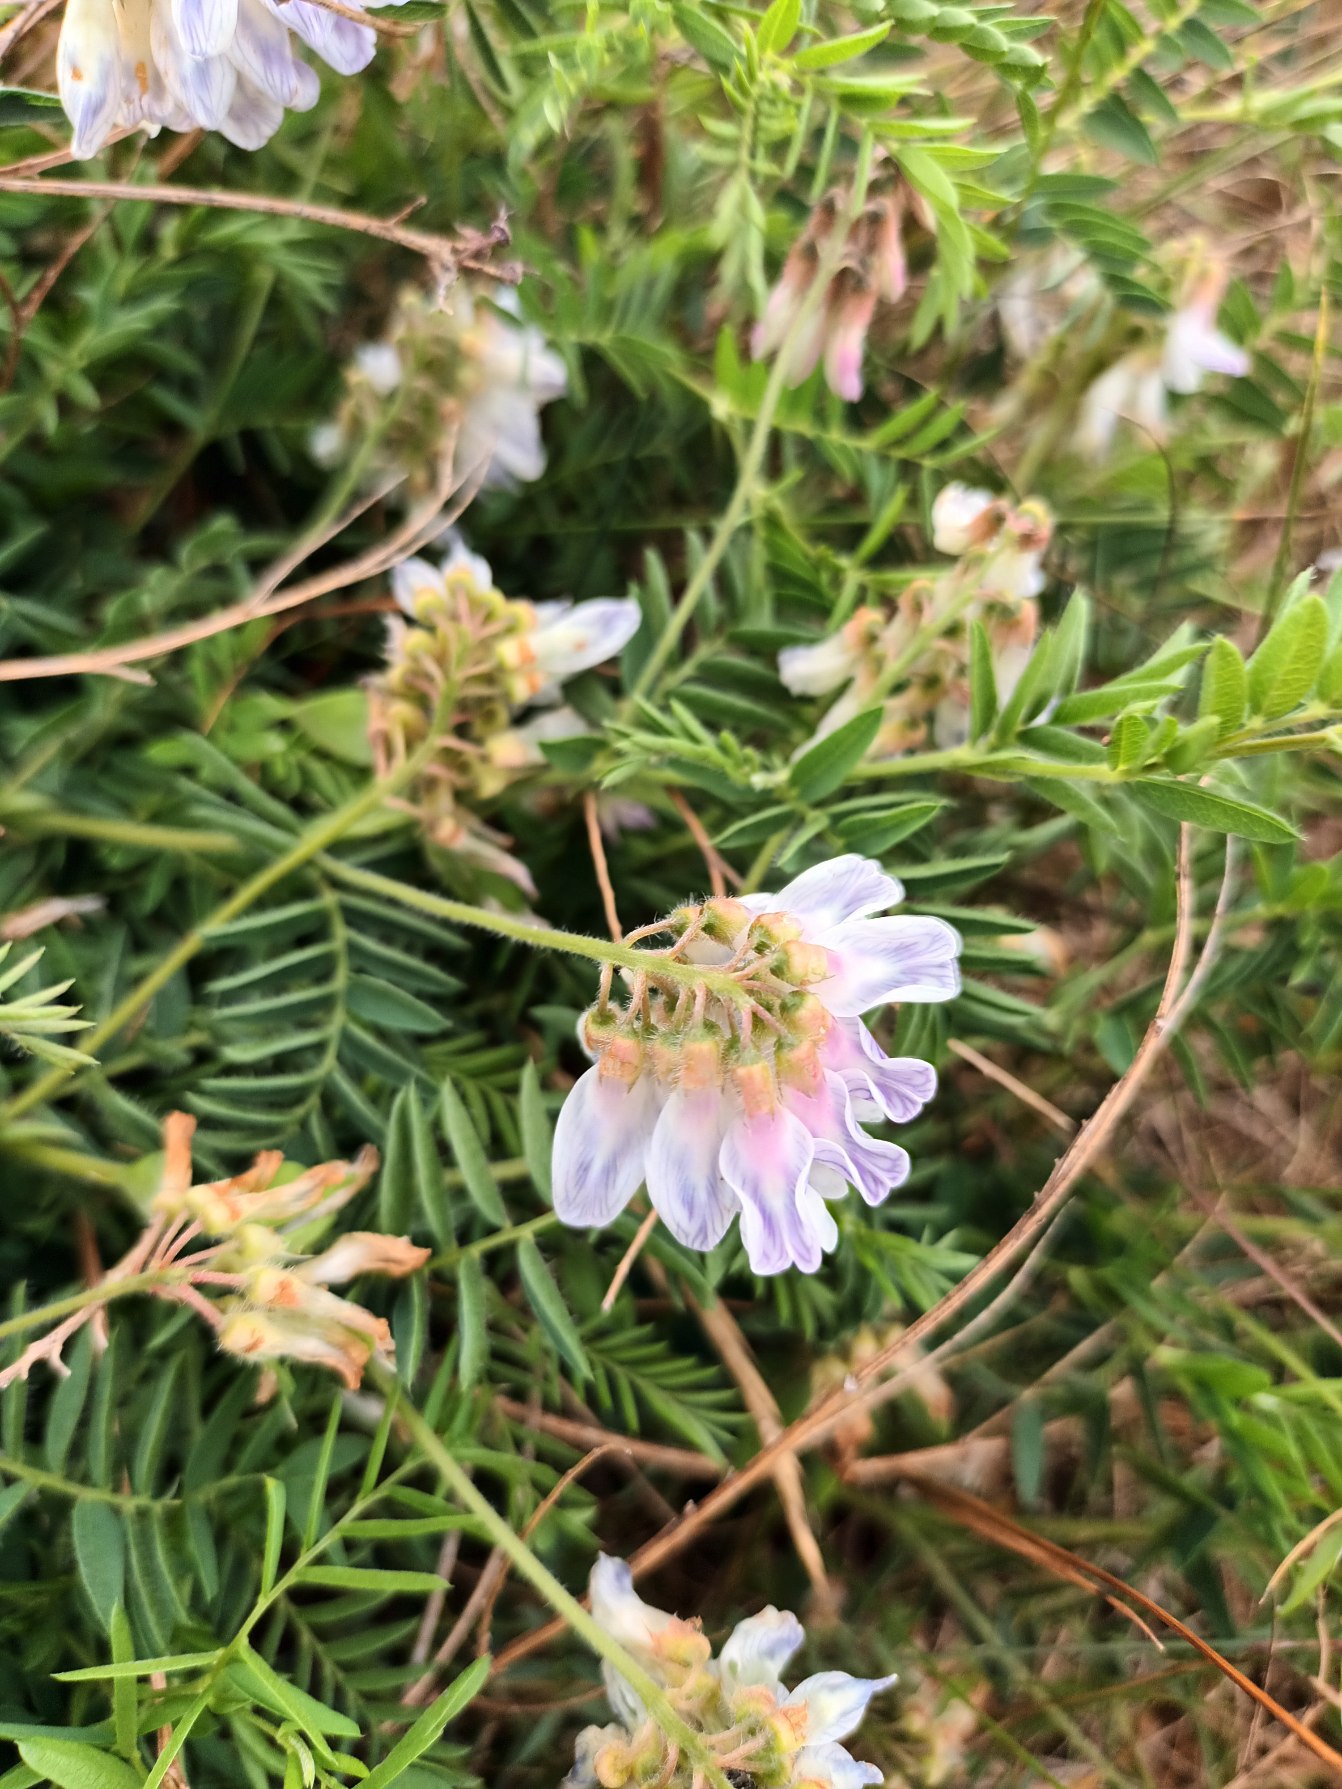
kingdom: Plantae
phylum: Tracheophyta
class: Magnoliopsida
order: Fabales
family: Fabaceae
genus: Vicia
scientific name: Vicia orobus
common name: Lyng-vikke
